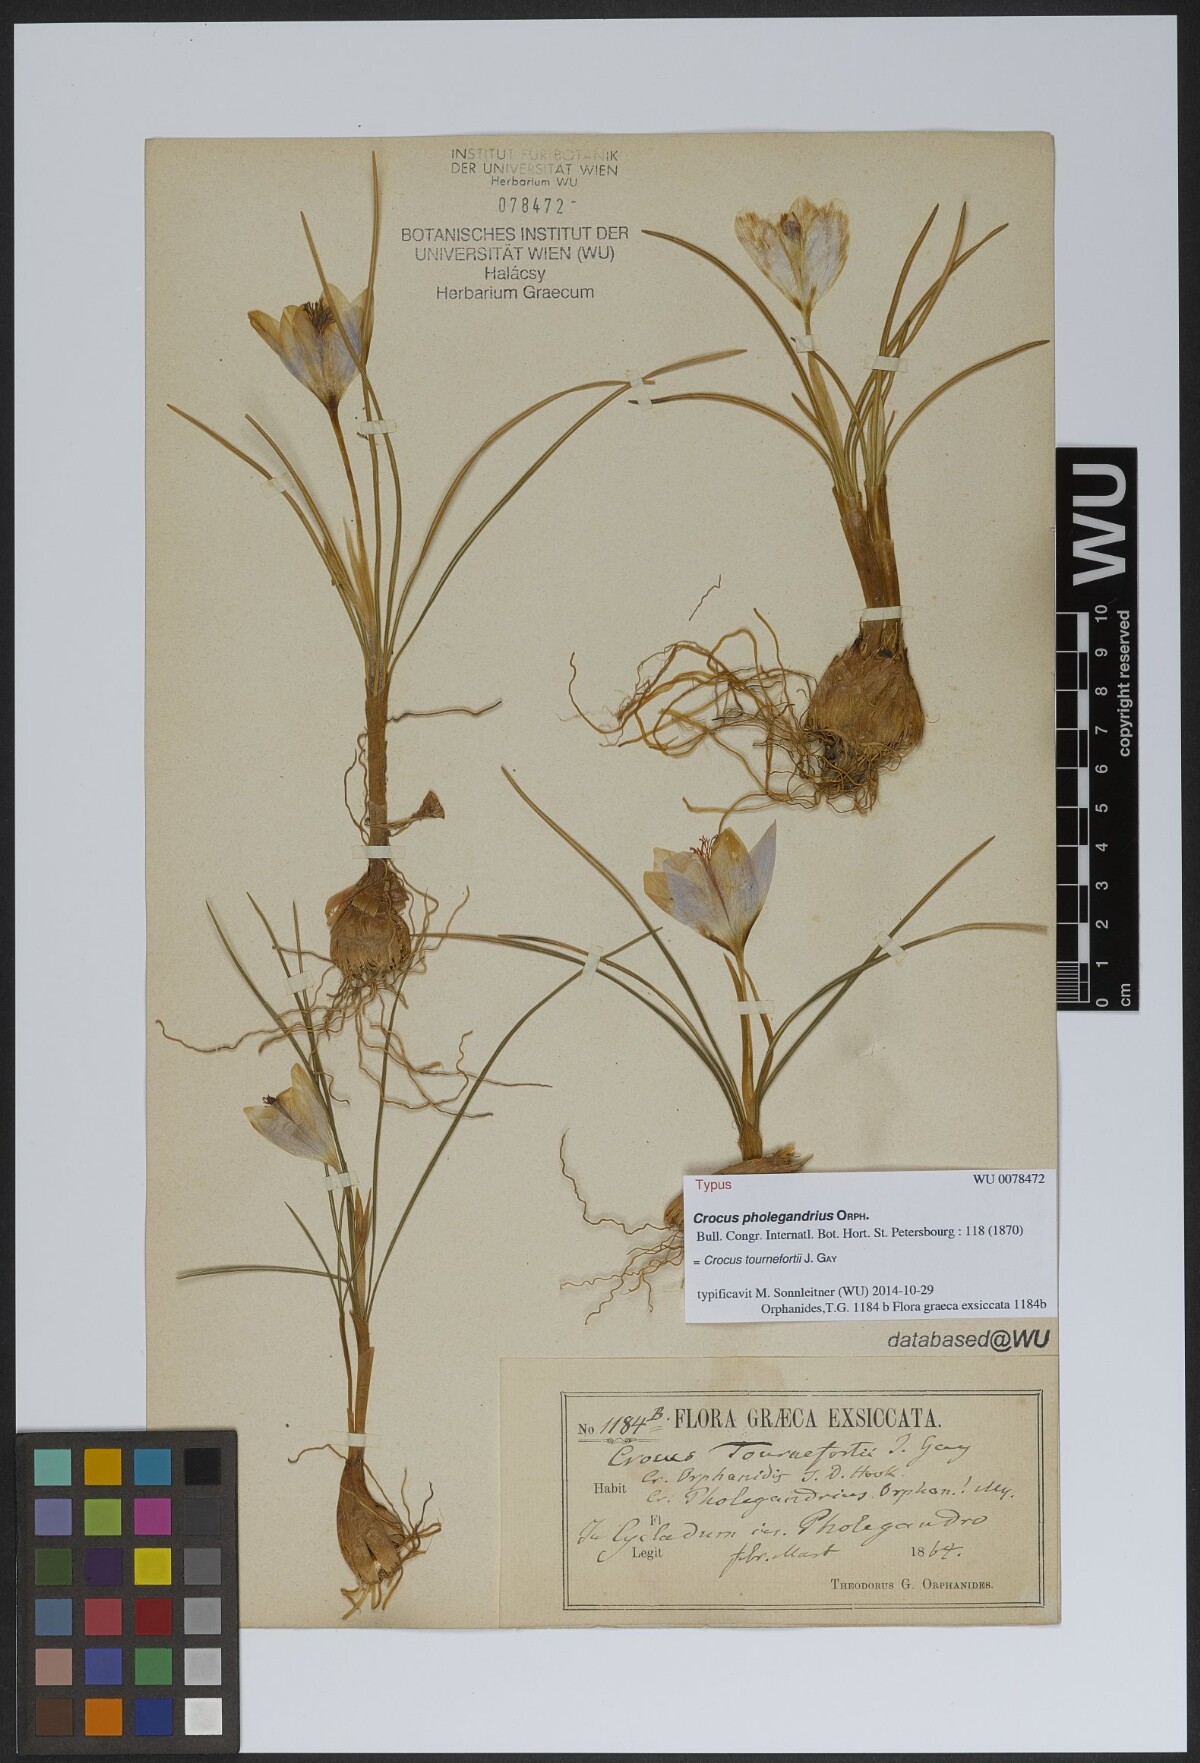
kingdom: Plantae
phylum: Tracheophyta
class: Liliopsida
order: Asparagales
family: Iridaceae
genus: Crocus
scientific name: Crocus tournefortii
